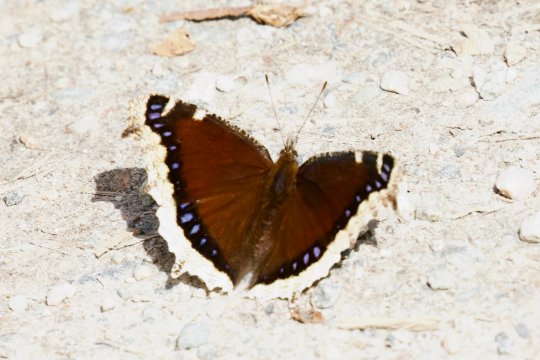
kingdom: Animalia
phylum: Arthropoda
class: Insecta
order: Lepidoptera
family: Nymphalidae
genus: Nymphalis
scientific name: Nymphalis antiopa
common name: Mourning Cloak
